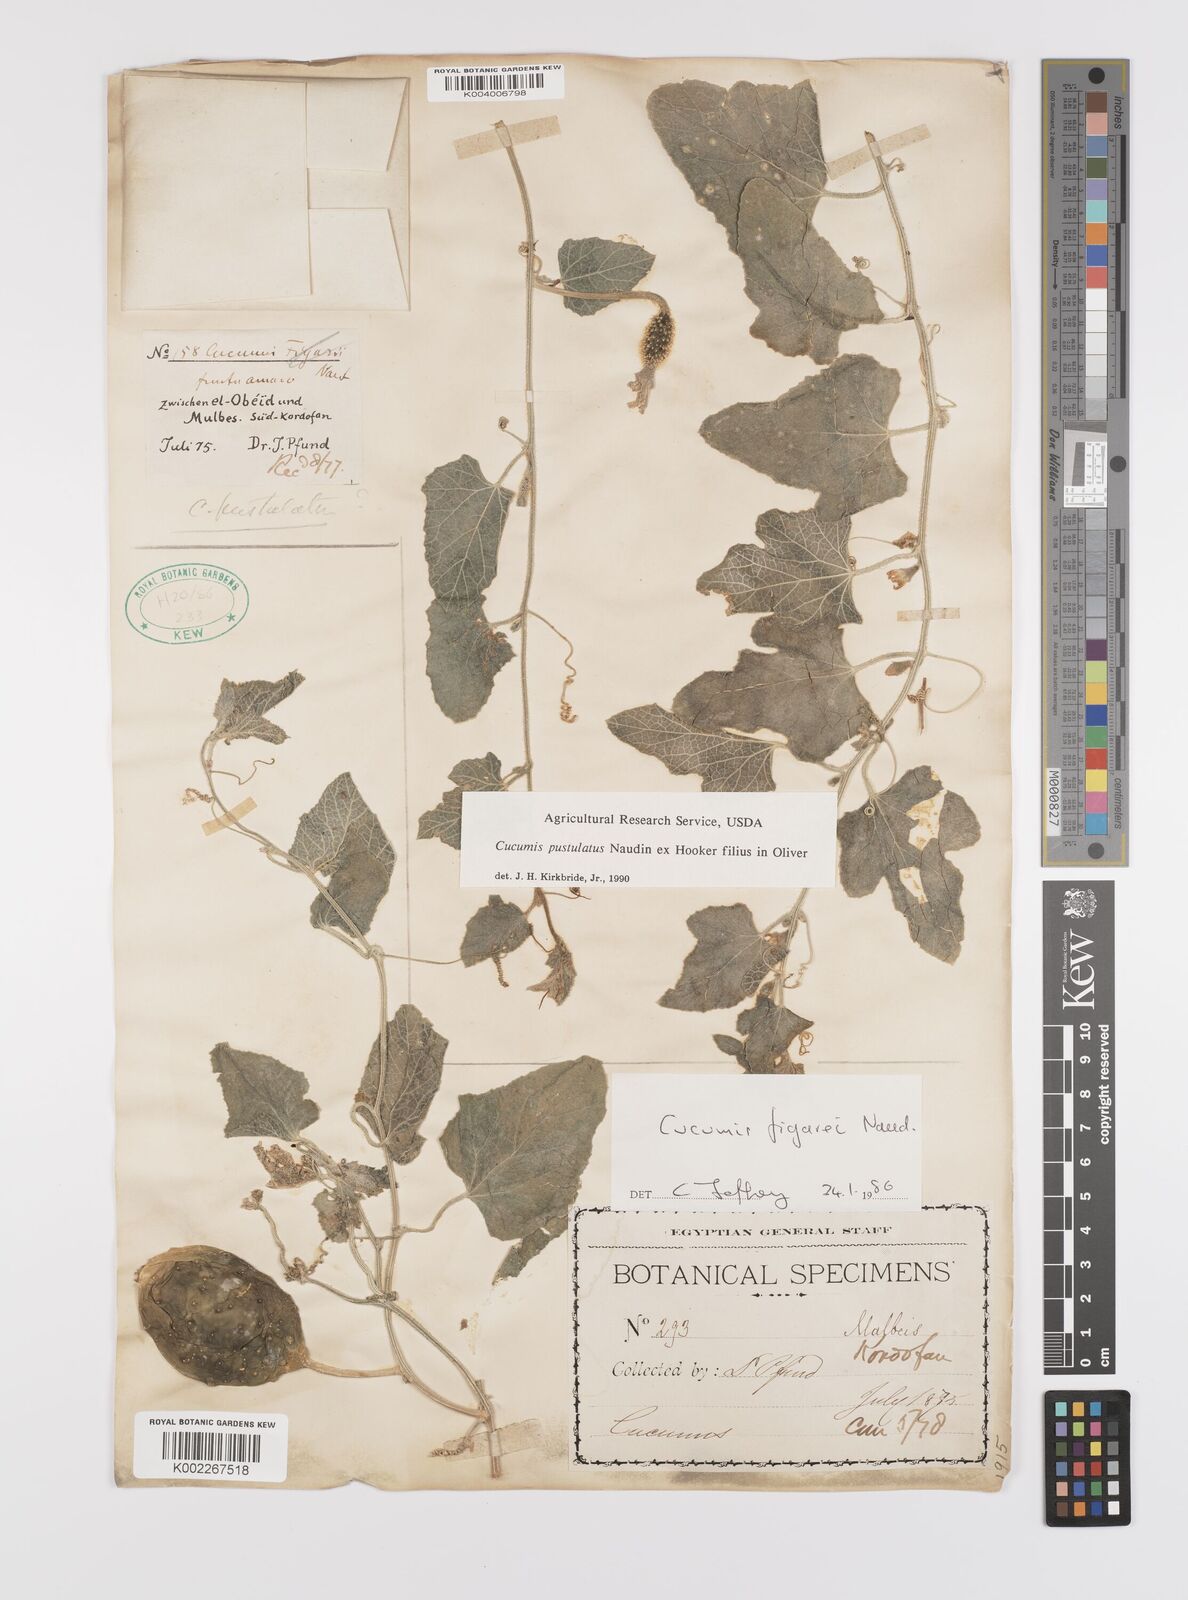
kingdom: Plantae
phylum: Tracheophyta
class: Magnoliopsida
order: Cucurbitales
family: Cucurbitaceae
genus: Cucumis
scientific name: Cucumis pustulatus
